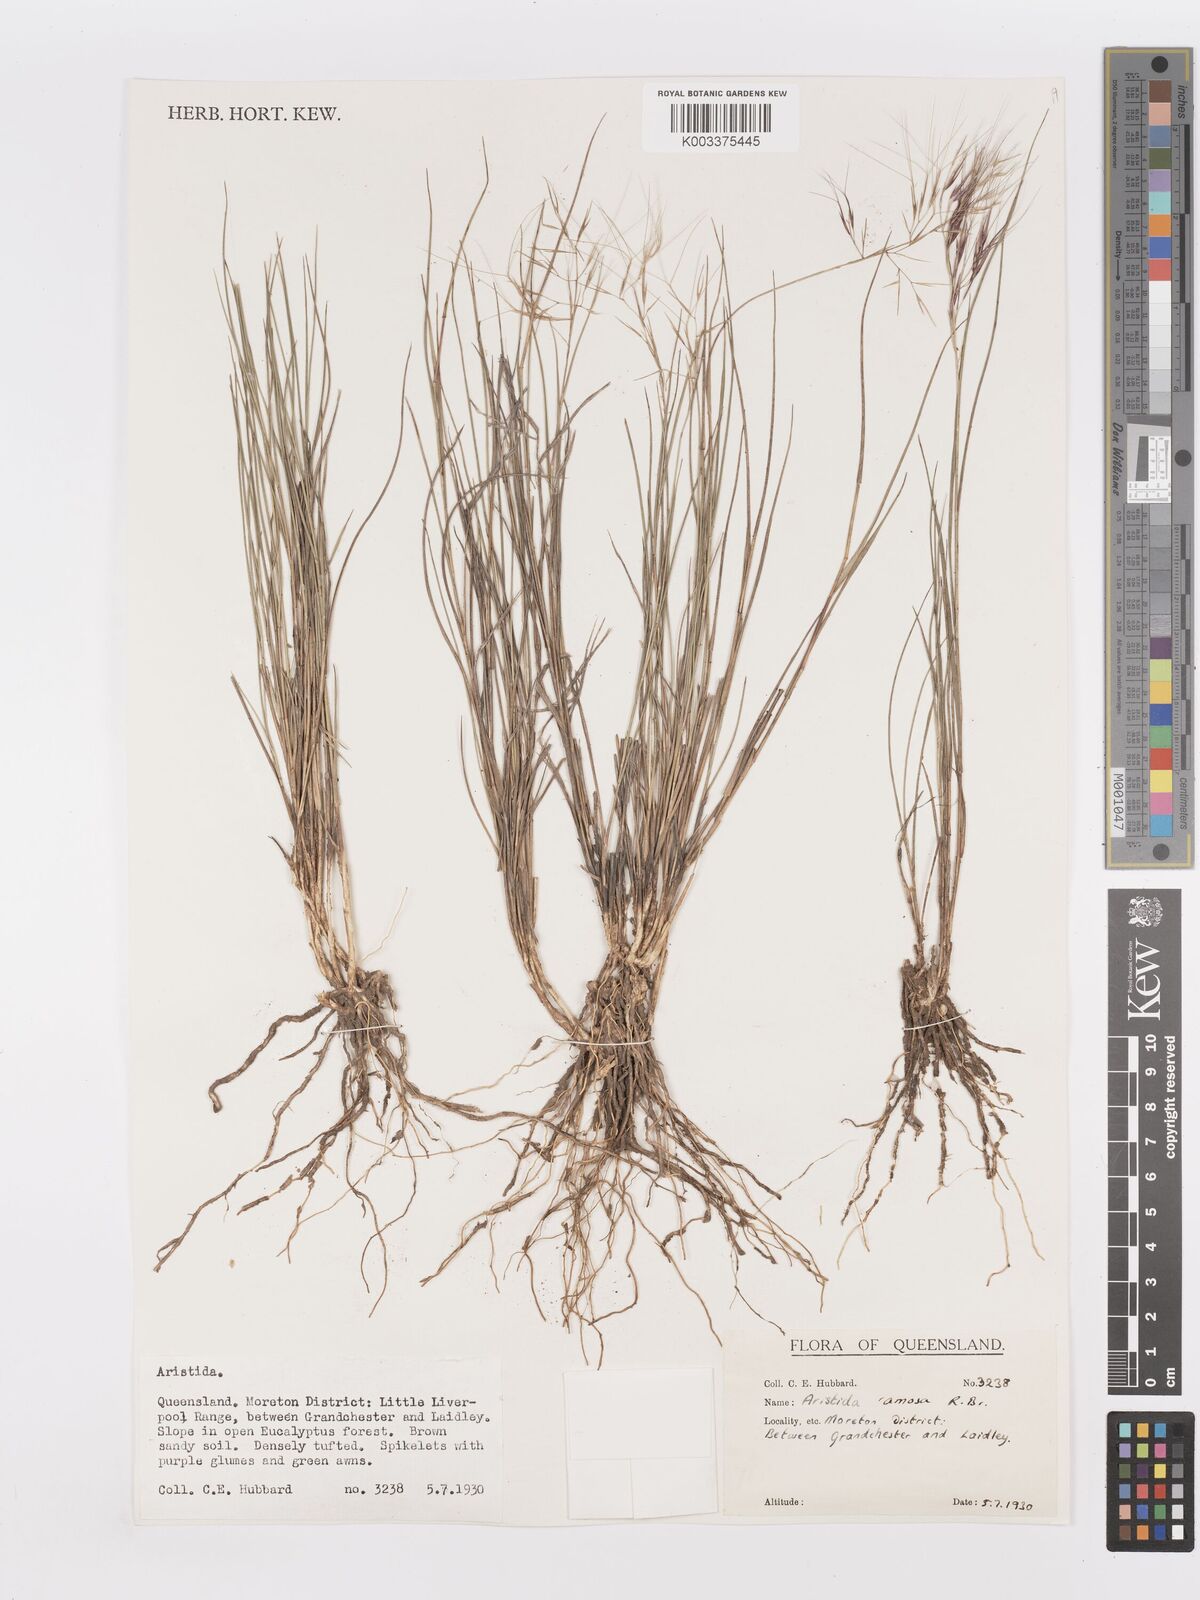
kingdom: Plantae
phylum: Tracheophyta
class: Liliopsida
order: Poales
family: Poaceae
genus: Aristida
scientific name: Aristida ramosa
